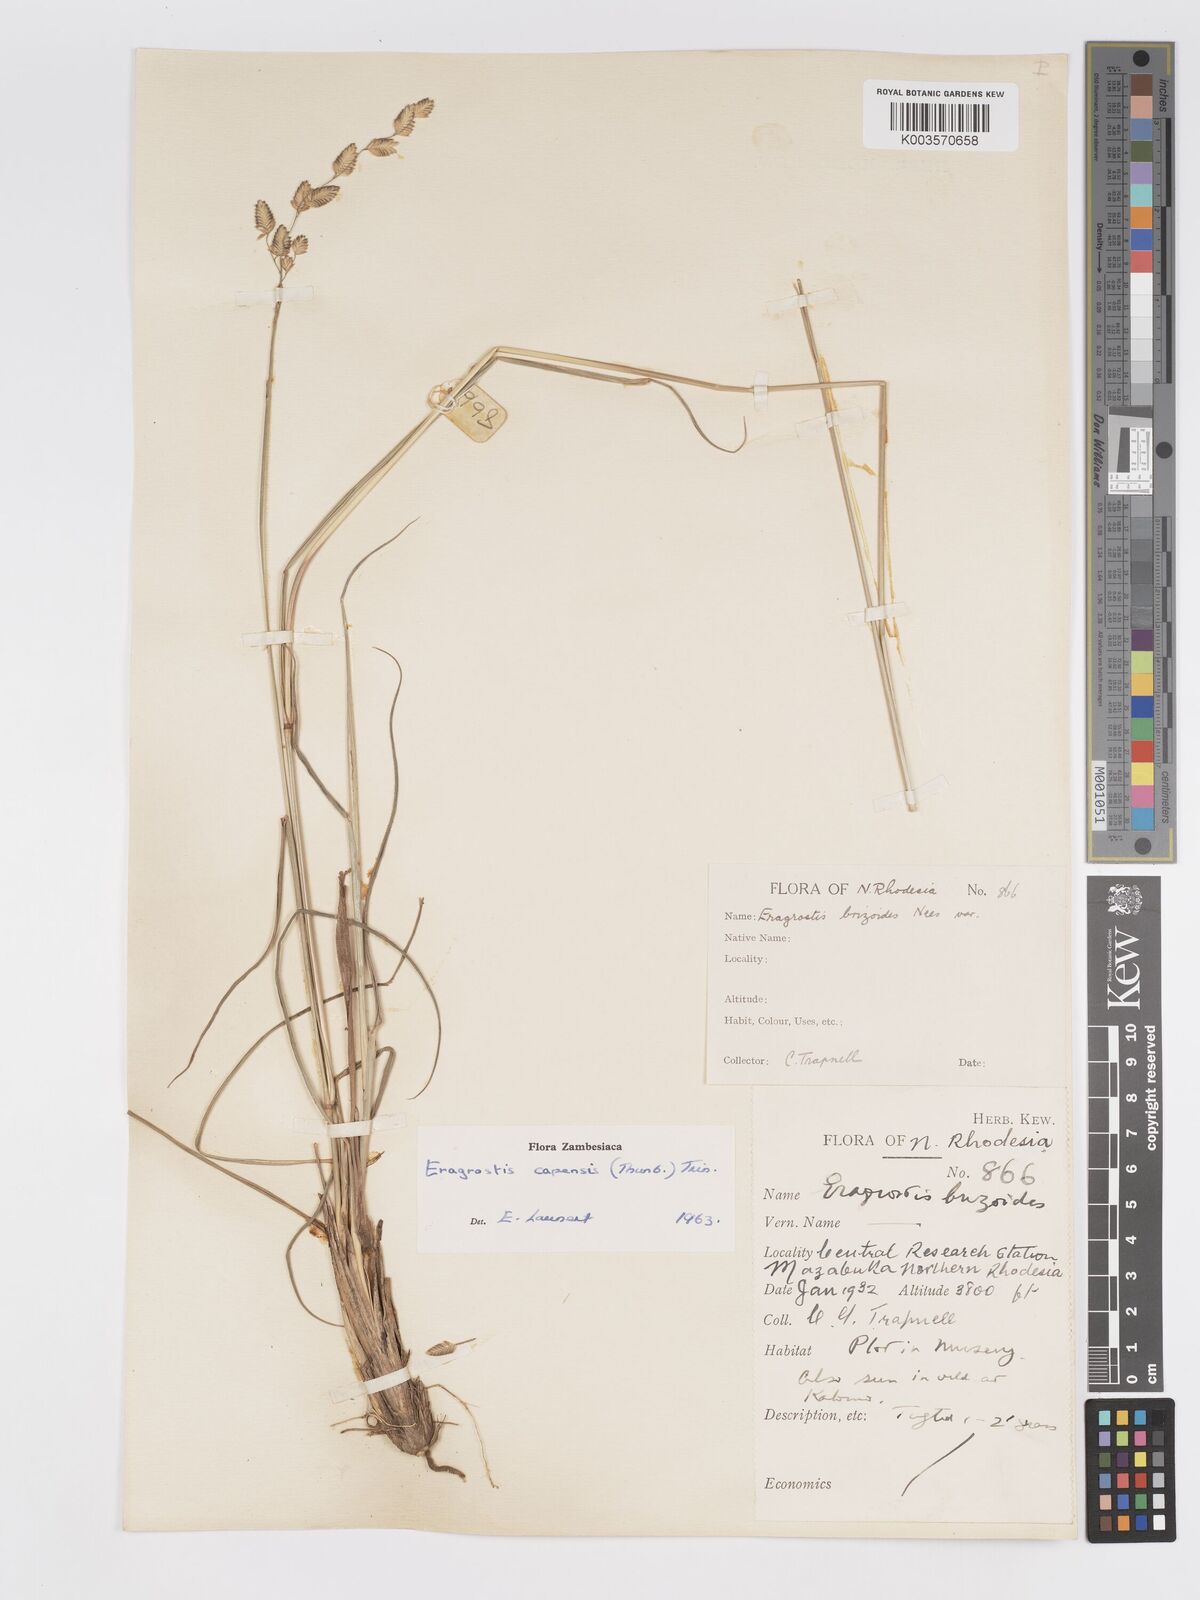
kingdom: Plantae
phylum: Tracheophyta
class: Liliopsida
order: Poales
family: Poaceae
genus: Eragrostis
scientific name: Eragrostis capensis
